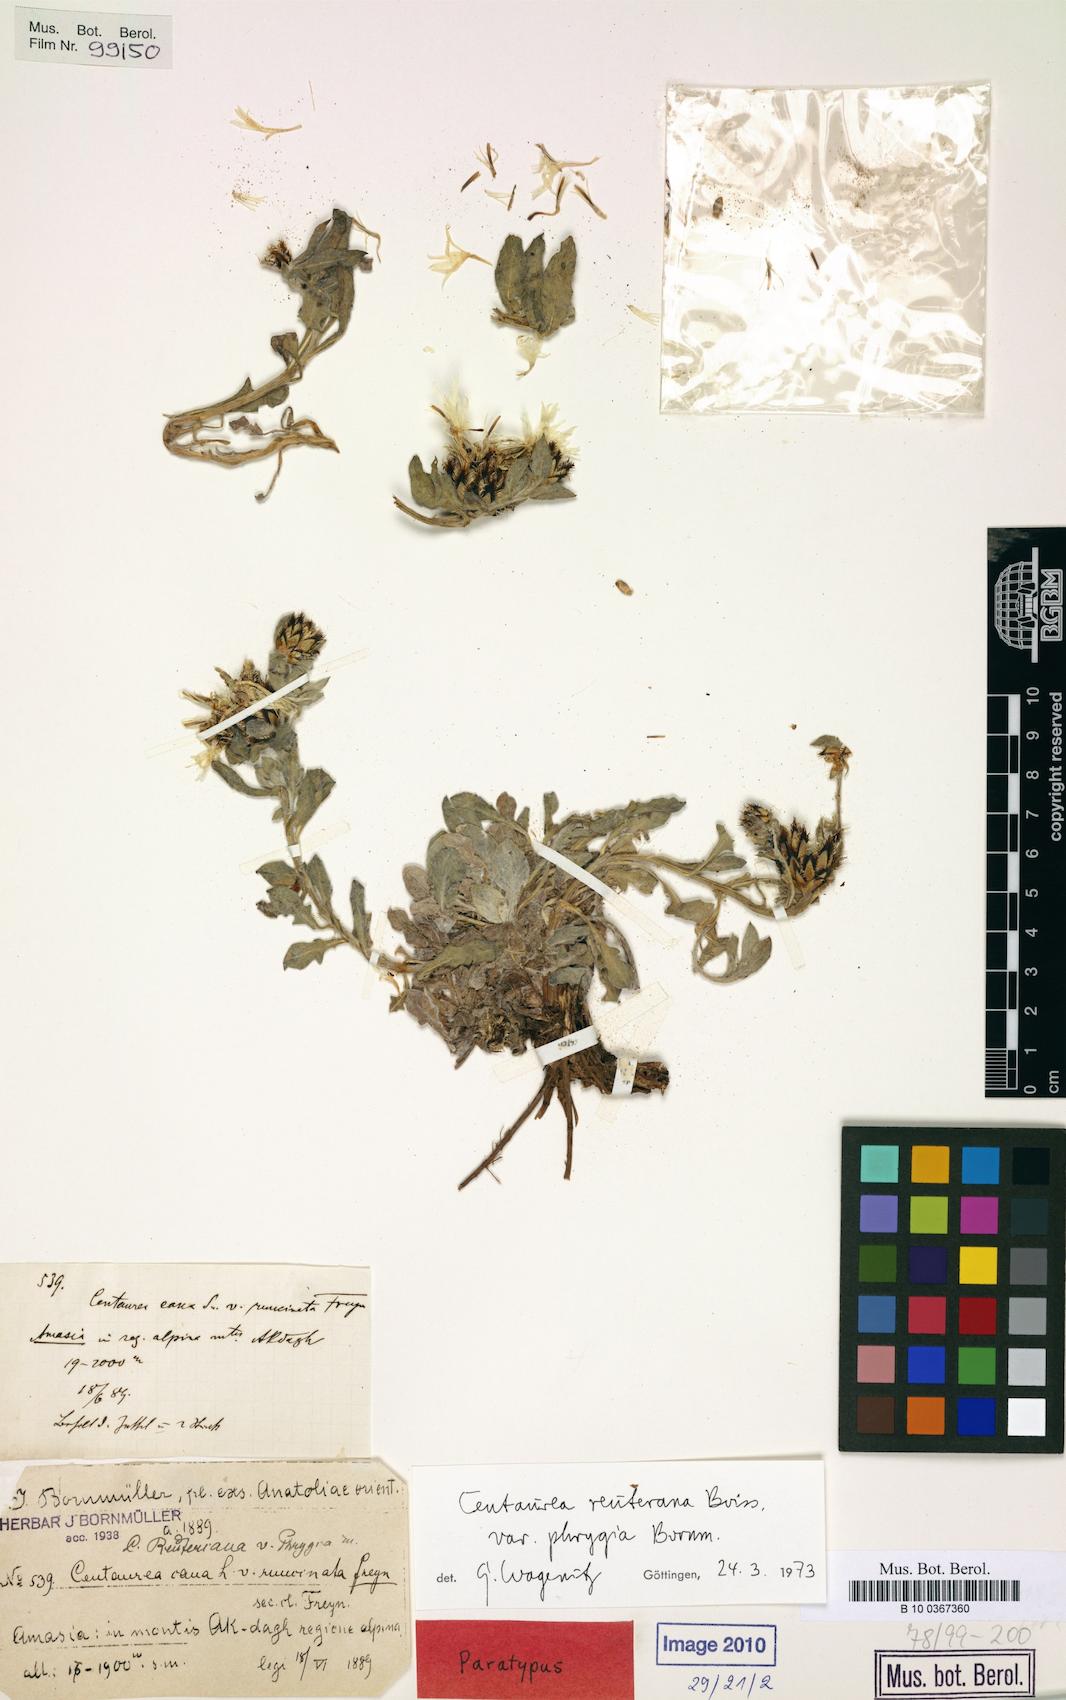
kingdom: Plantae
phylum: Tracheophyta
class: Magnoliopsida
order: Asterales
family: Asteraceae
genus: Centaurea
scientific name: Centaurea reuteriana
